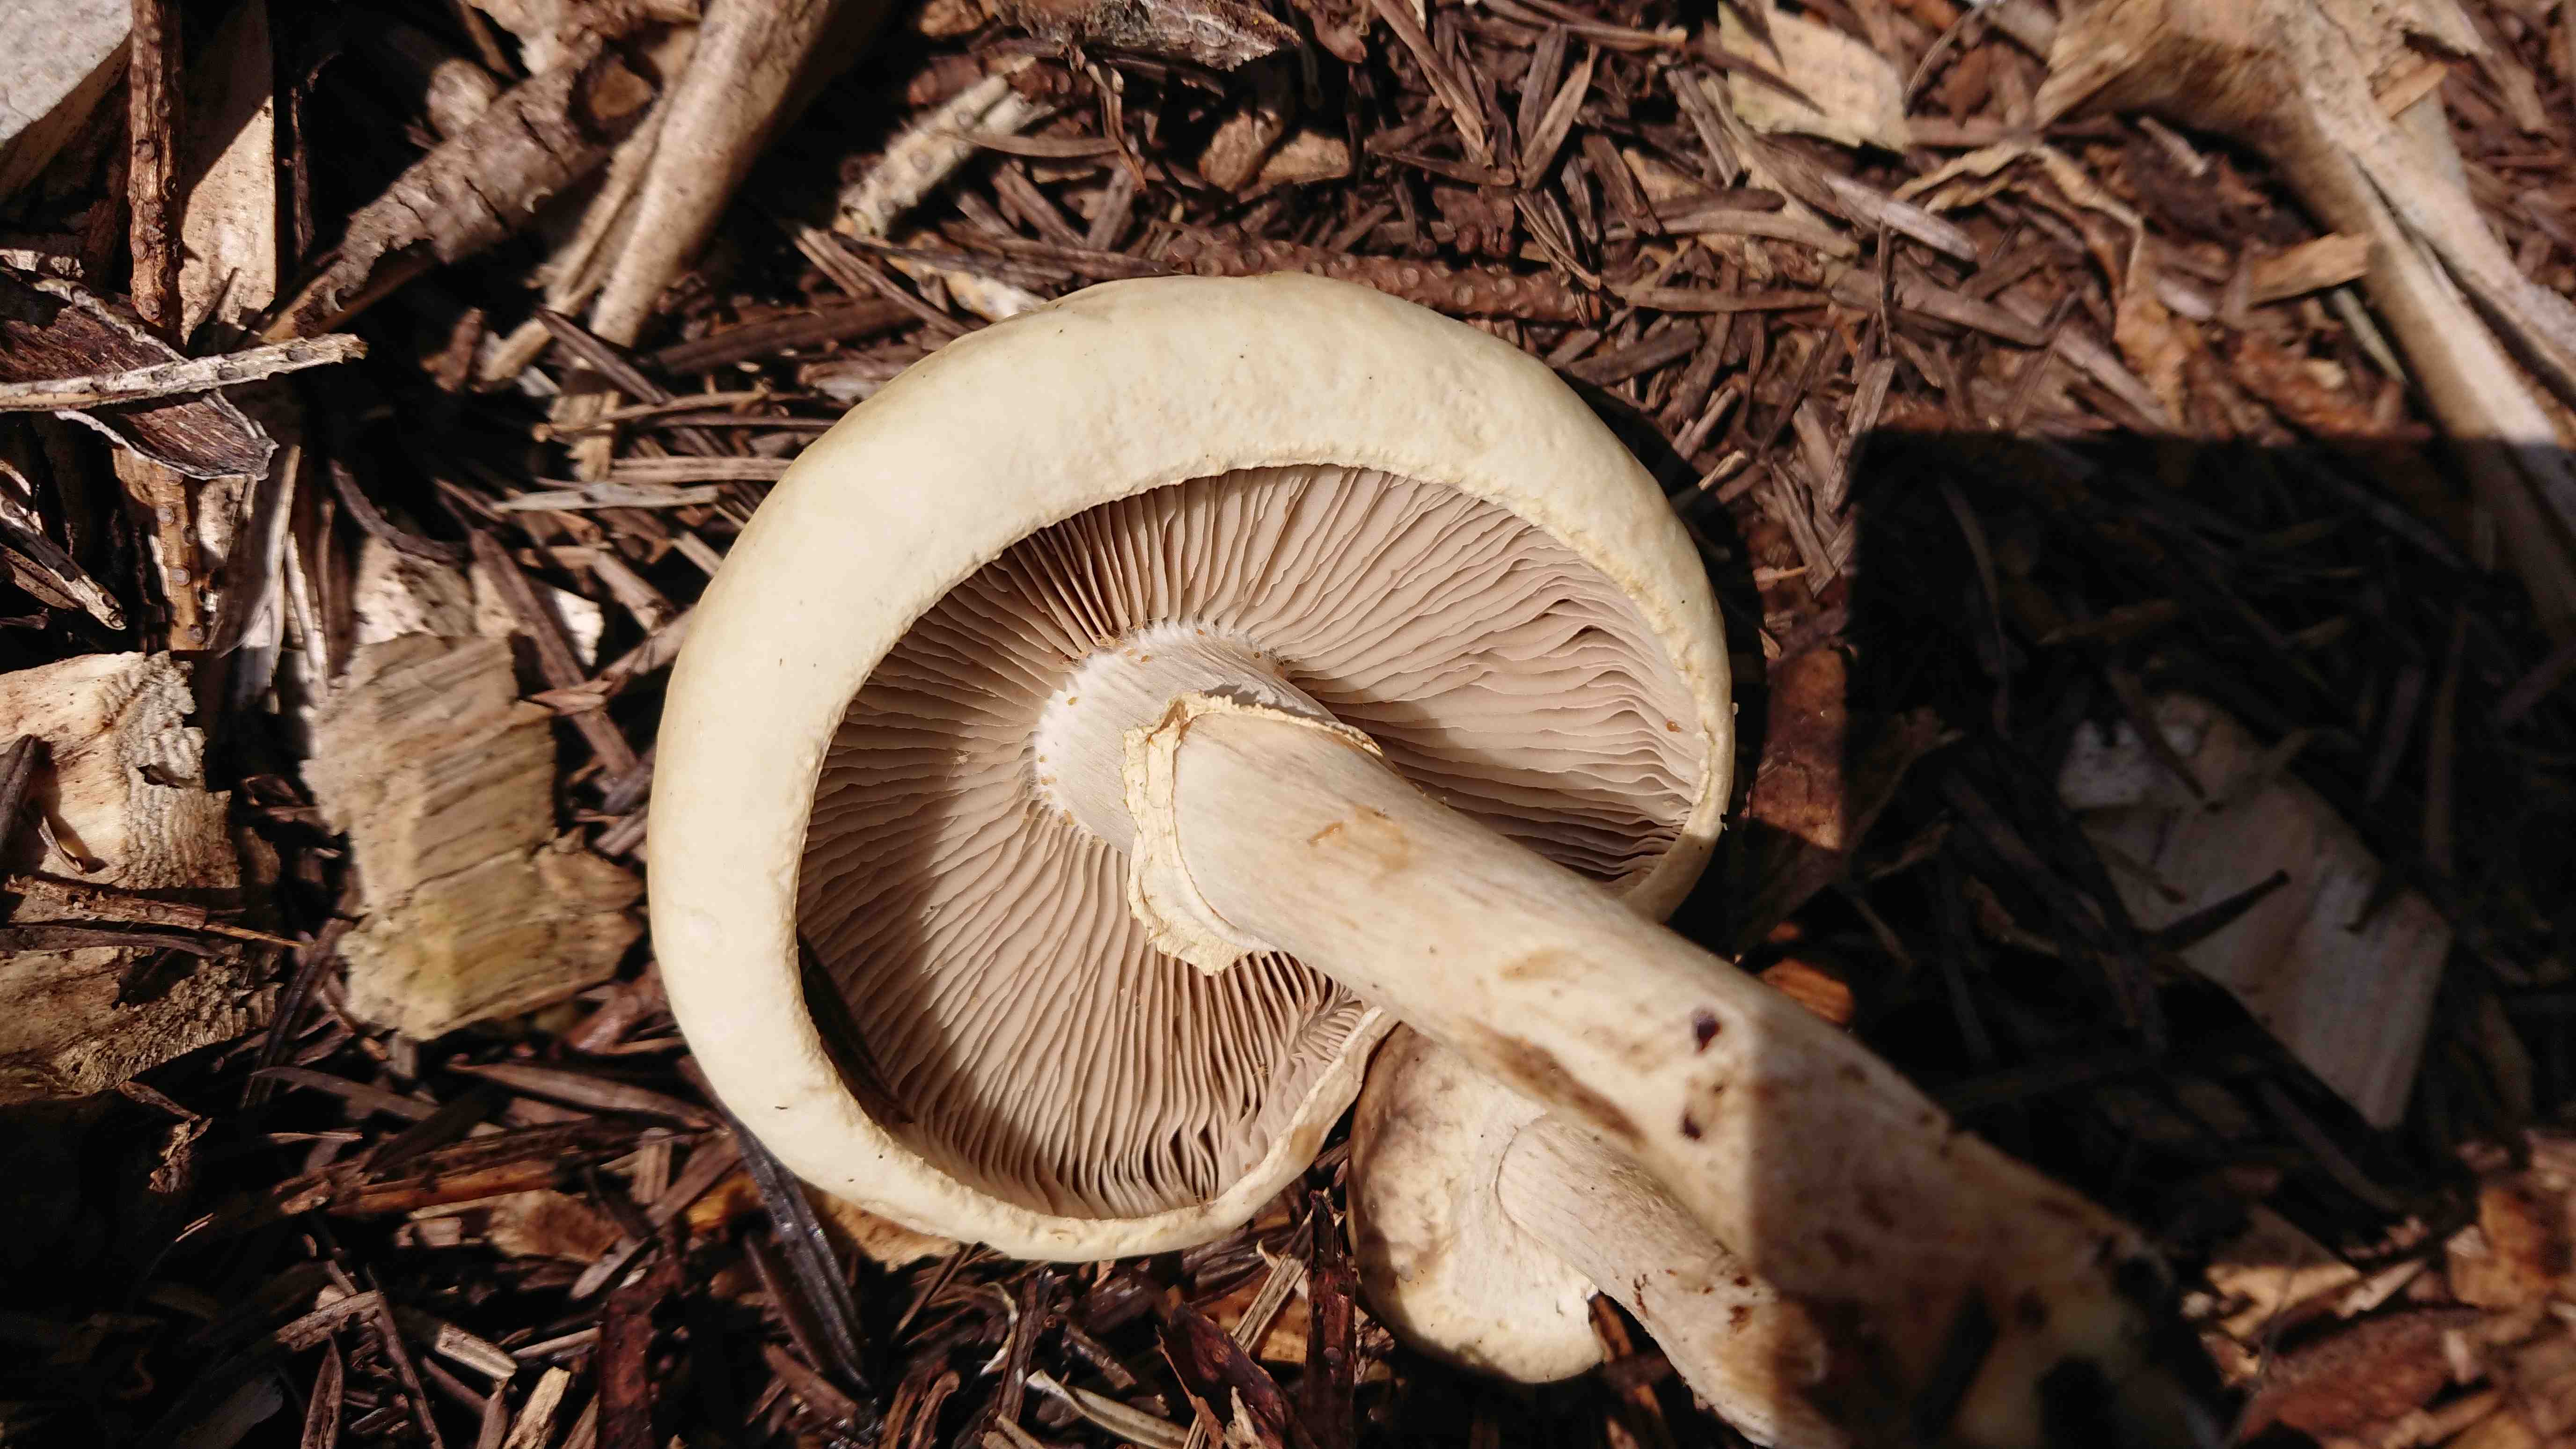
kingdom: Fungi
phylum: Basidiomycota
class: Agaricomycetes
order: Agaricales
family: Strophariaceae
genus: Agrocybe
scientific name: Agrocybe
